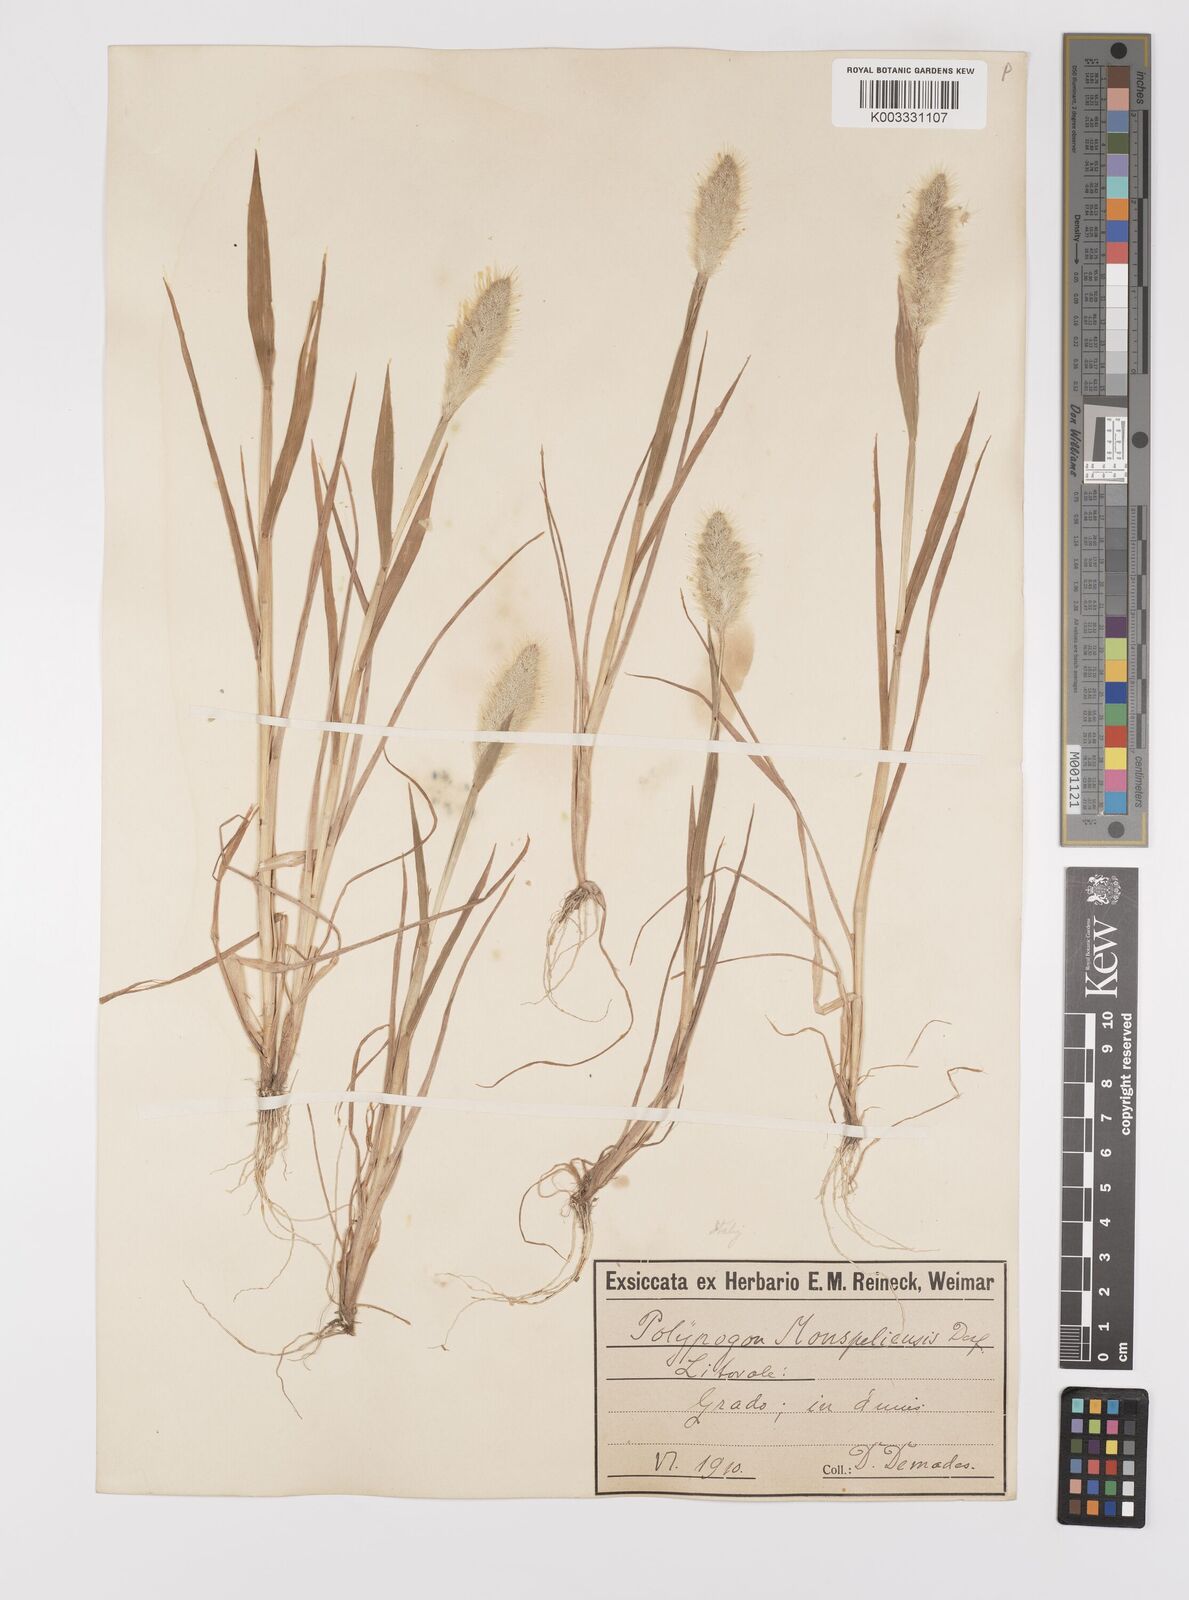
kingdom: Plantae
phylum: Tracheophyta
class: Liliopsida
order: Poales
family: Poaceae
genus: Polypogon
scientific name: Polypogon monspeliensis
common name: Annual rabbitsfoot grass
